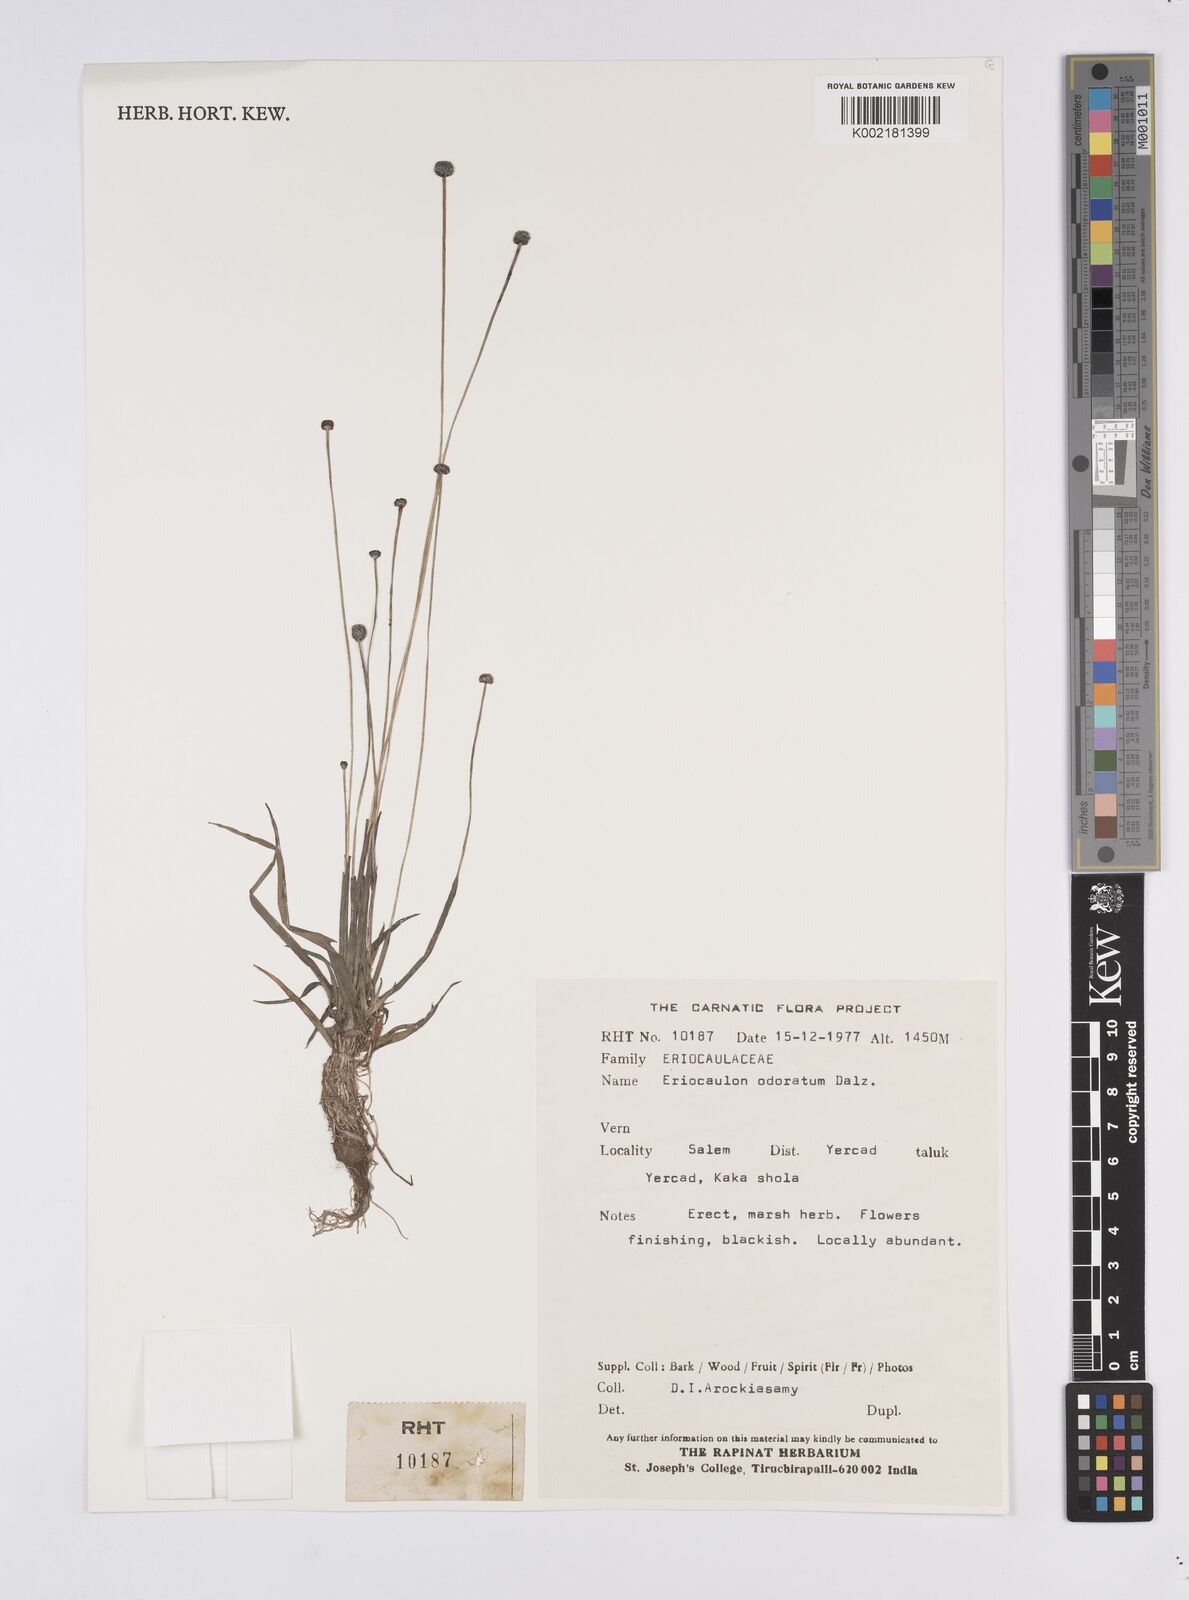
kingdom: Plantae
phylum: Tracheophyta
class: Liliopsida
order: Poales
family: Eriocaulaceae
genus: Eriocaulon
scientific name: Eriocaulon odoratum
